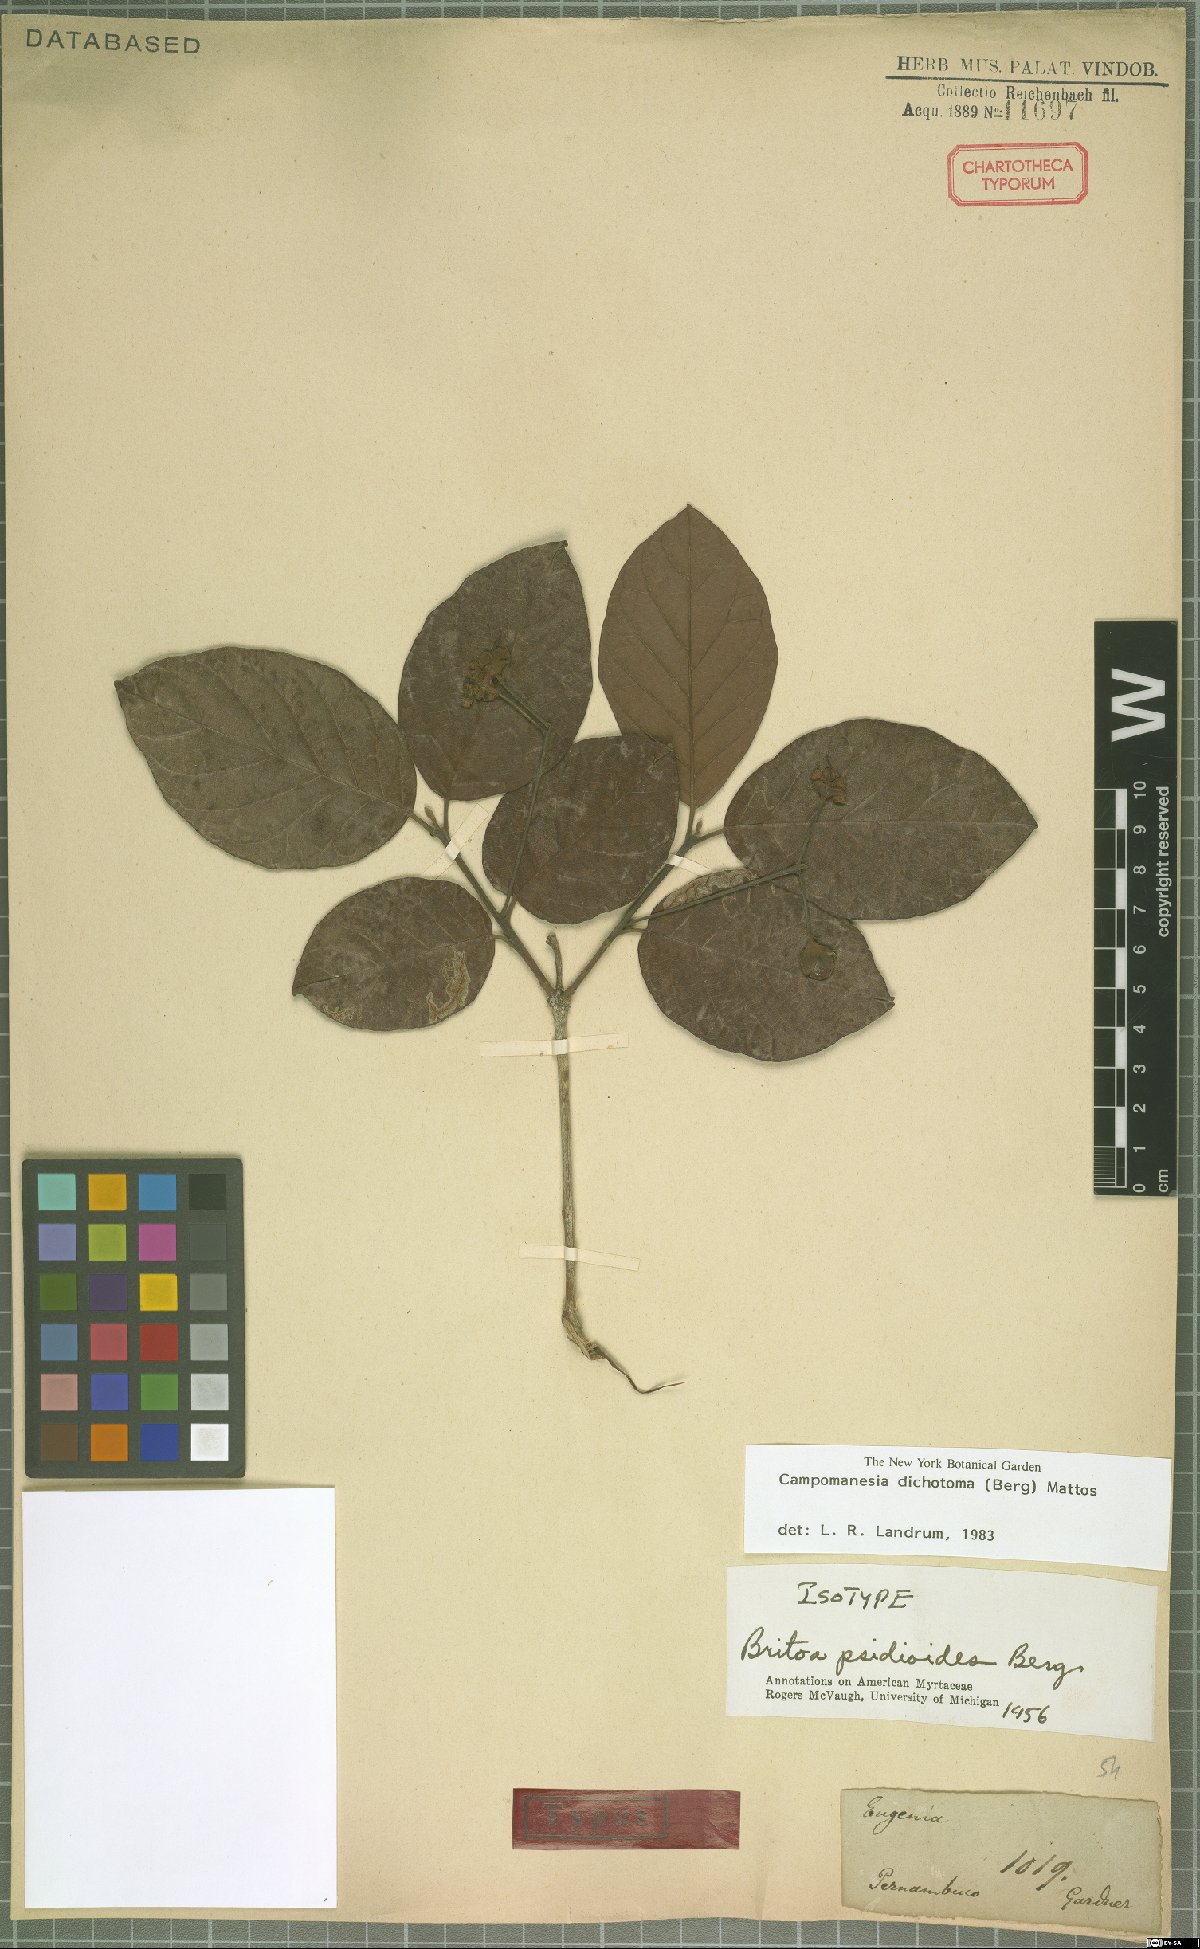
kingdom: Plantae
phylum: Tracheophyta
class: Magnoliopsida
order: Myrtales
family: Myrtaceae
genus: Campomanesia
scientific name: Campomanesia dichotoma
